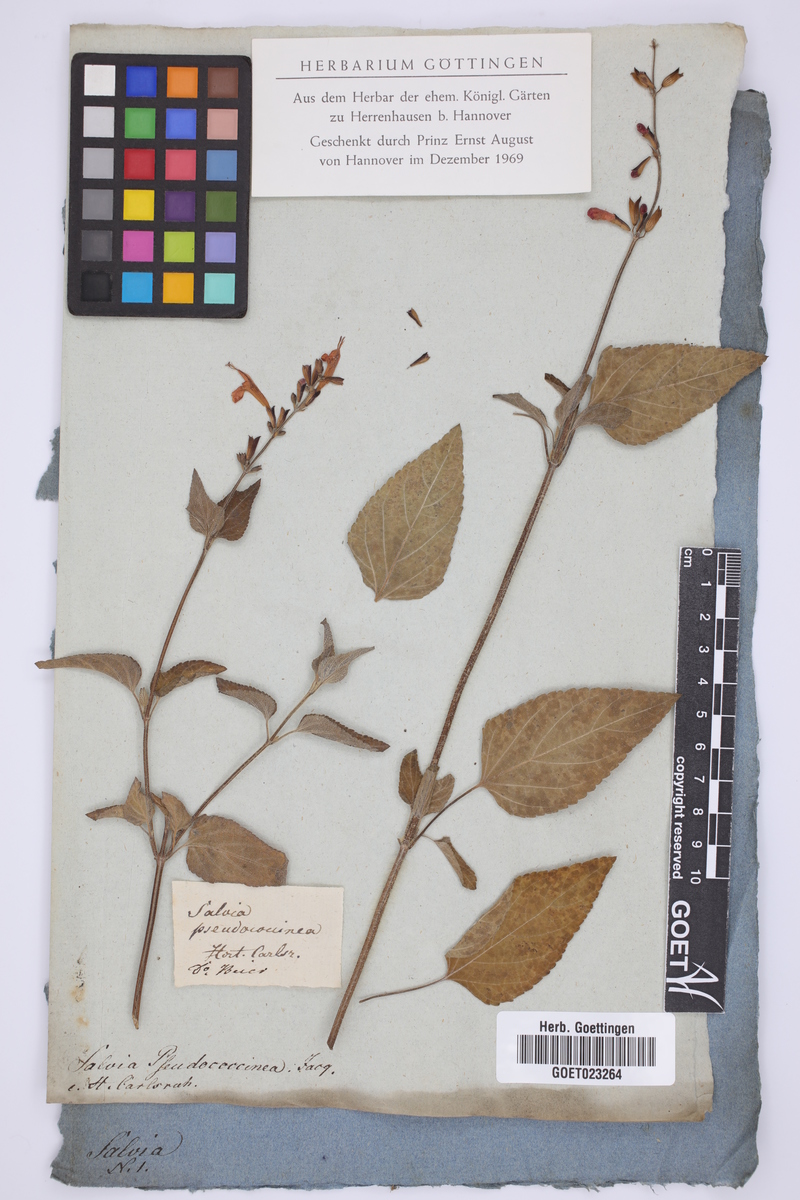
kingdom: Plantae
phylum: Tracheophyta
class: Magnoliopsida
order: Lamiales
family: Lamiaceae
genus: Salvia
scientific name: Salvia coccinea
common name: Blood sage
